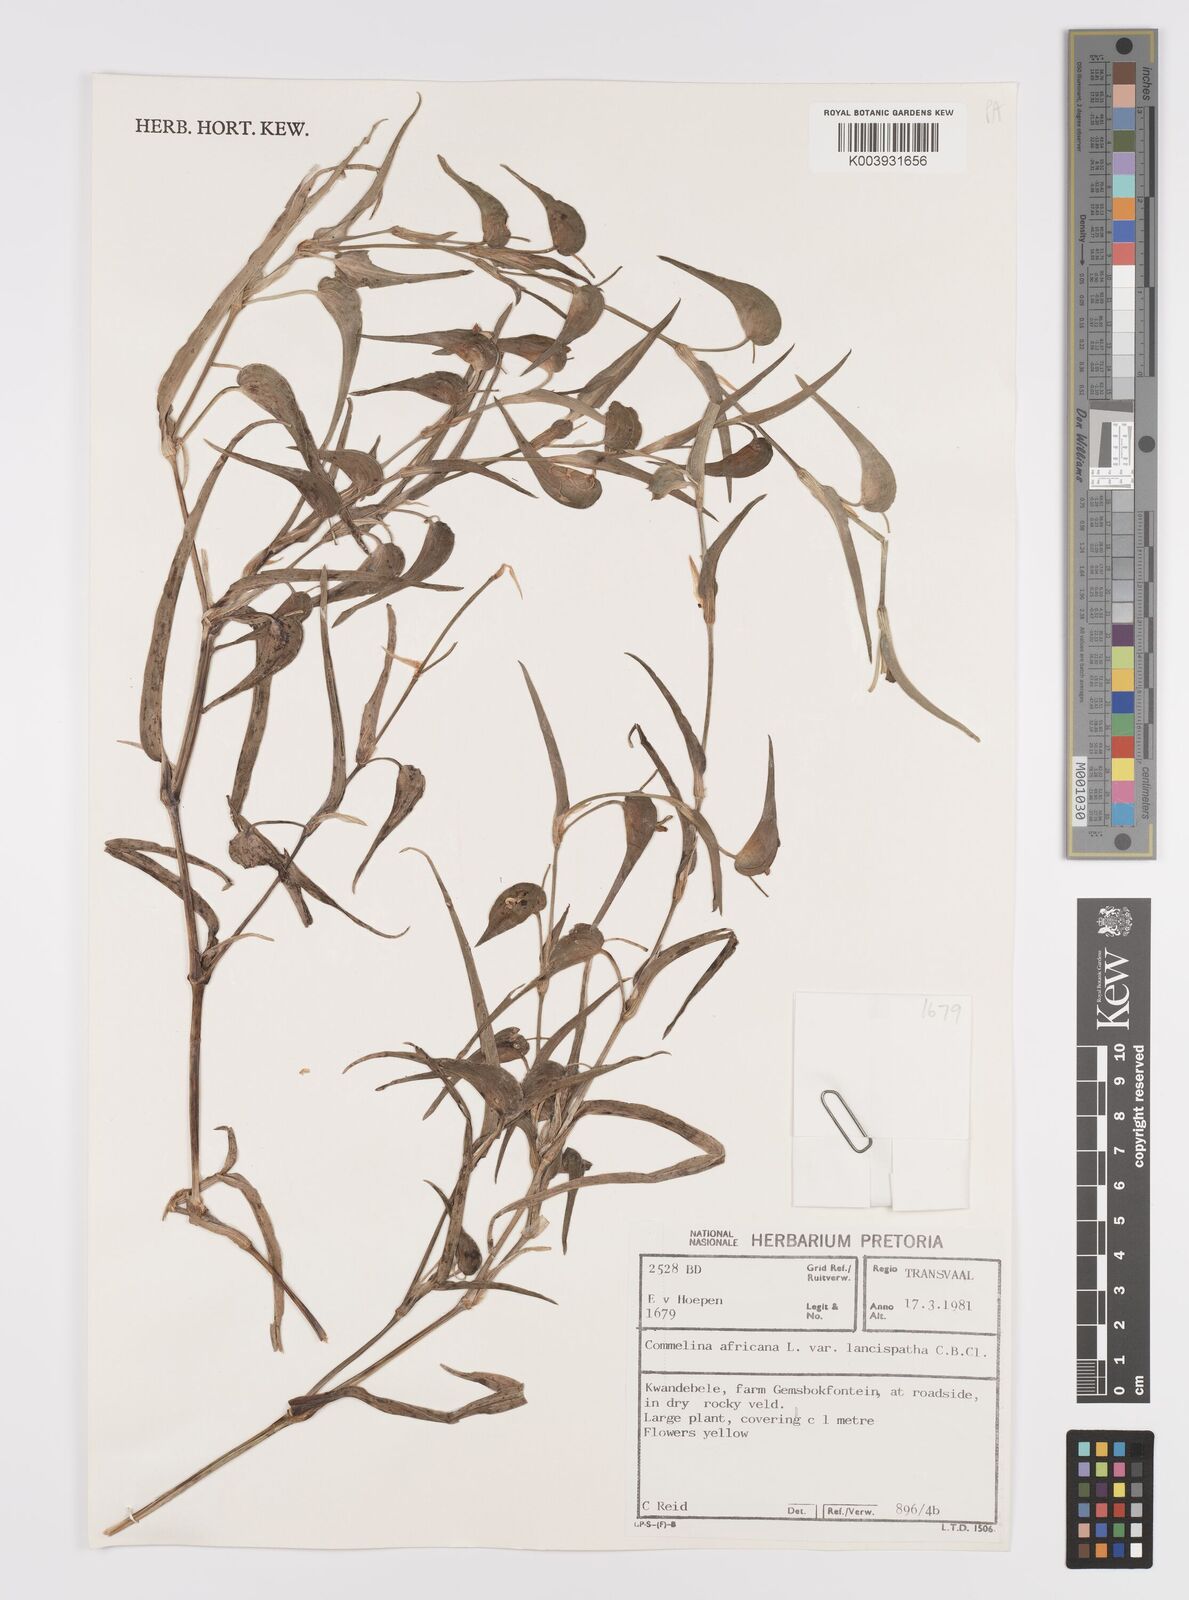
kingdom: Plantae
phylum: Tracheophyta
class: Liliopsida
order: Commelinales
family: Commelinaceae
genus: Commelina
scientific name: Commelina africana
